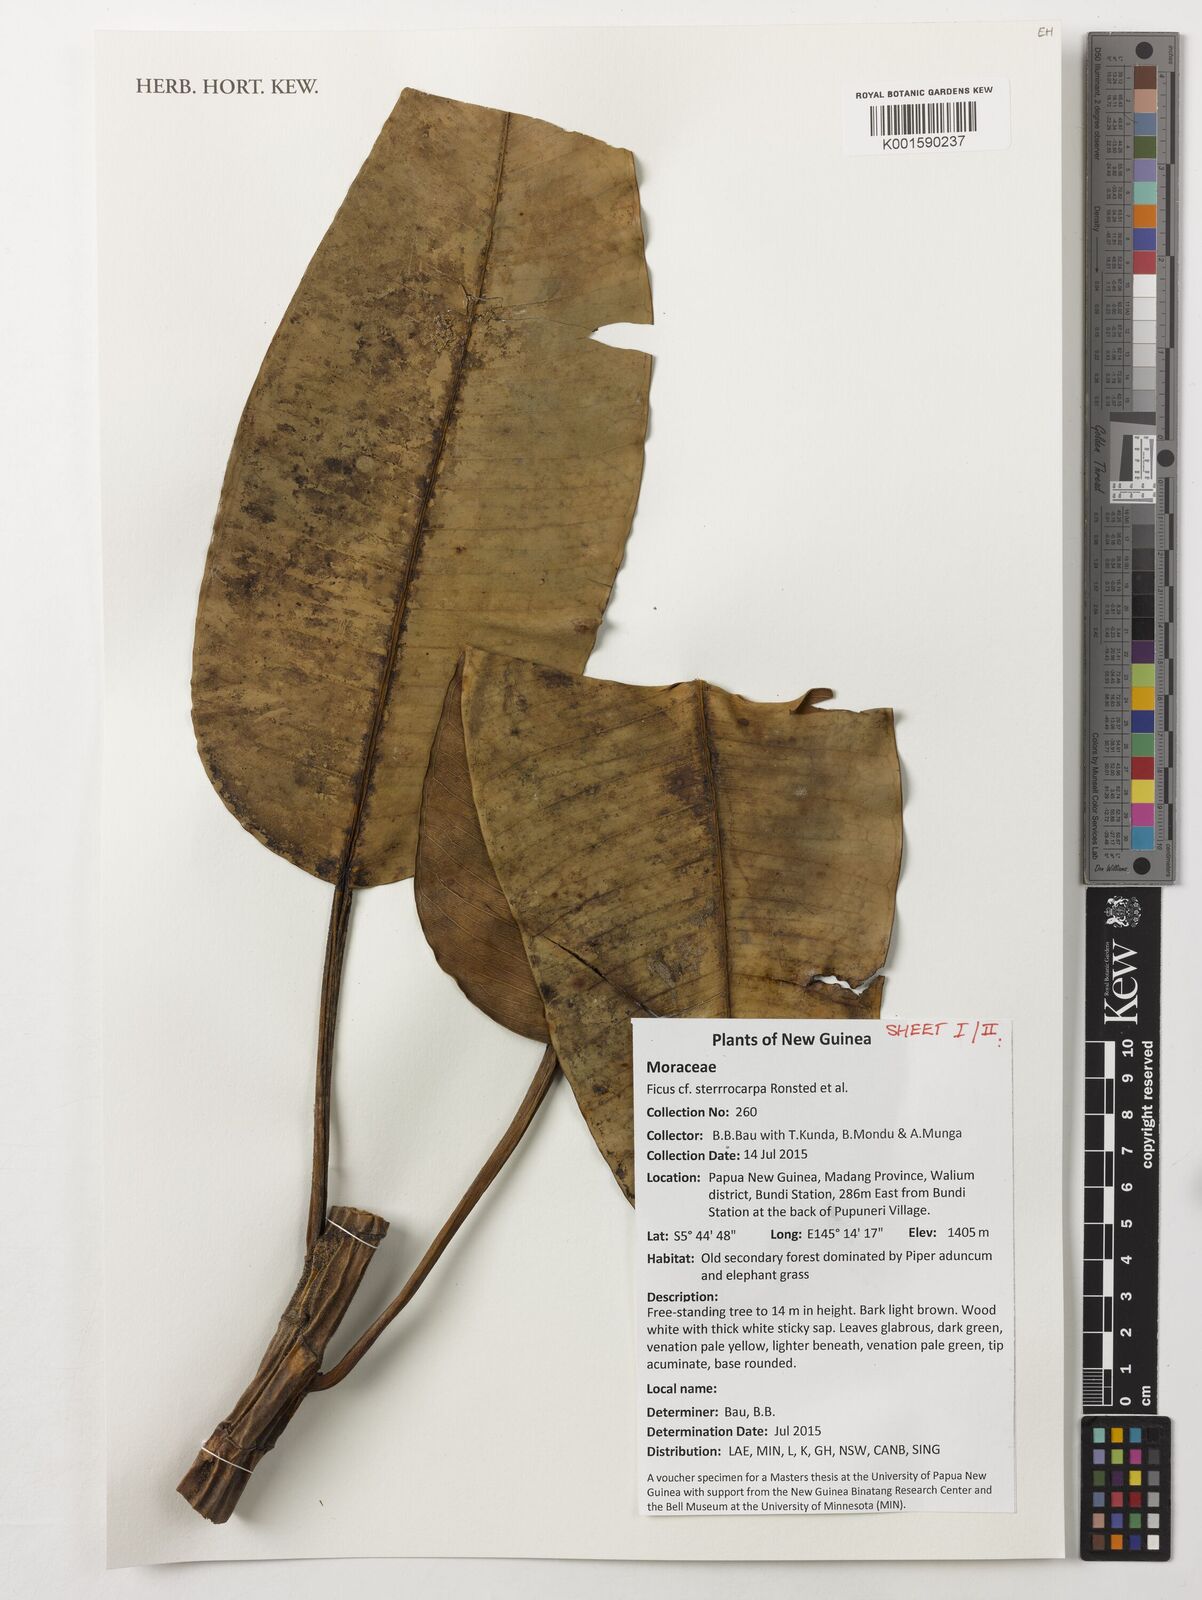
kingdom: Plantae
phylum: Tracheophyta
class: Magnoliopsida
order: Rosales
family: Moraceae
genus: Ficus
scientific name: Ficus hesperidiiformis
